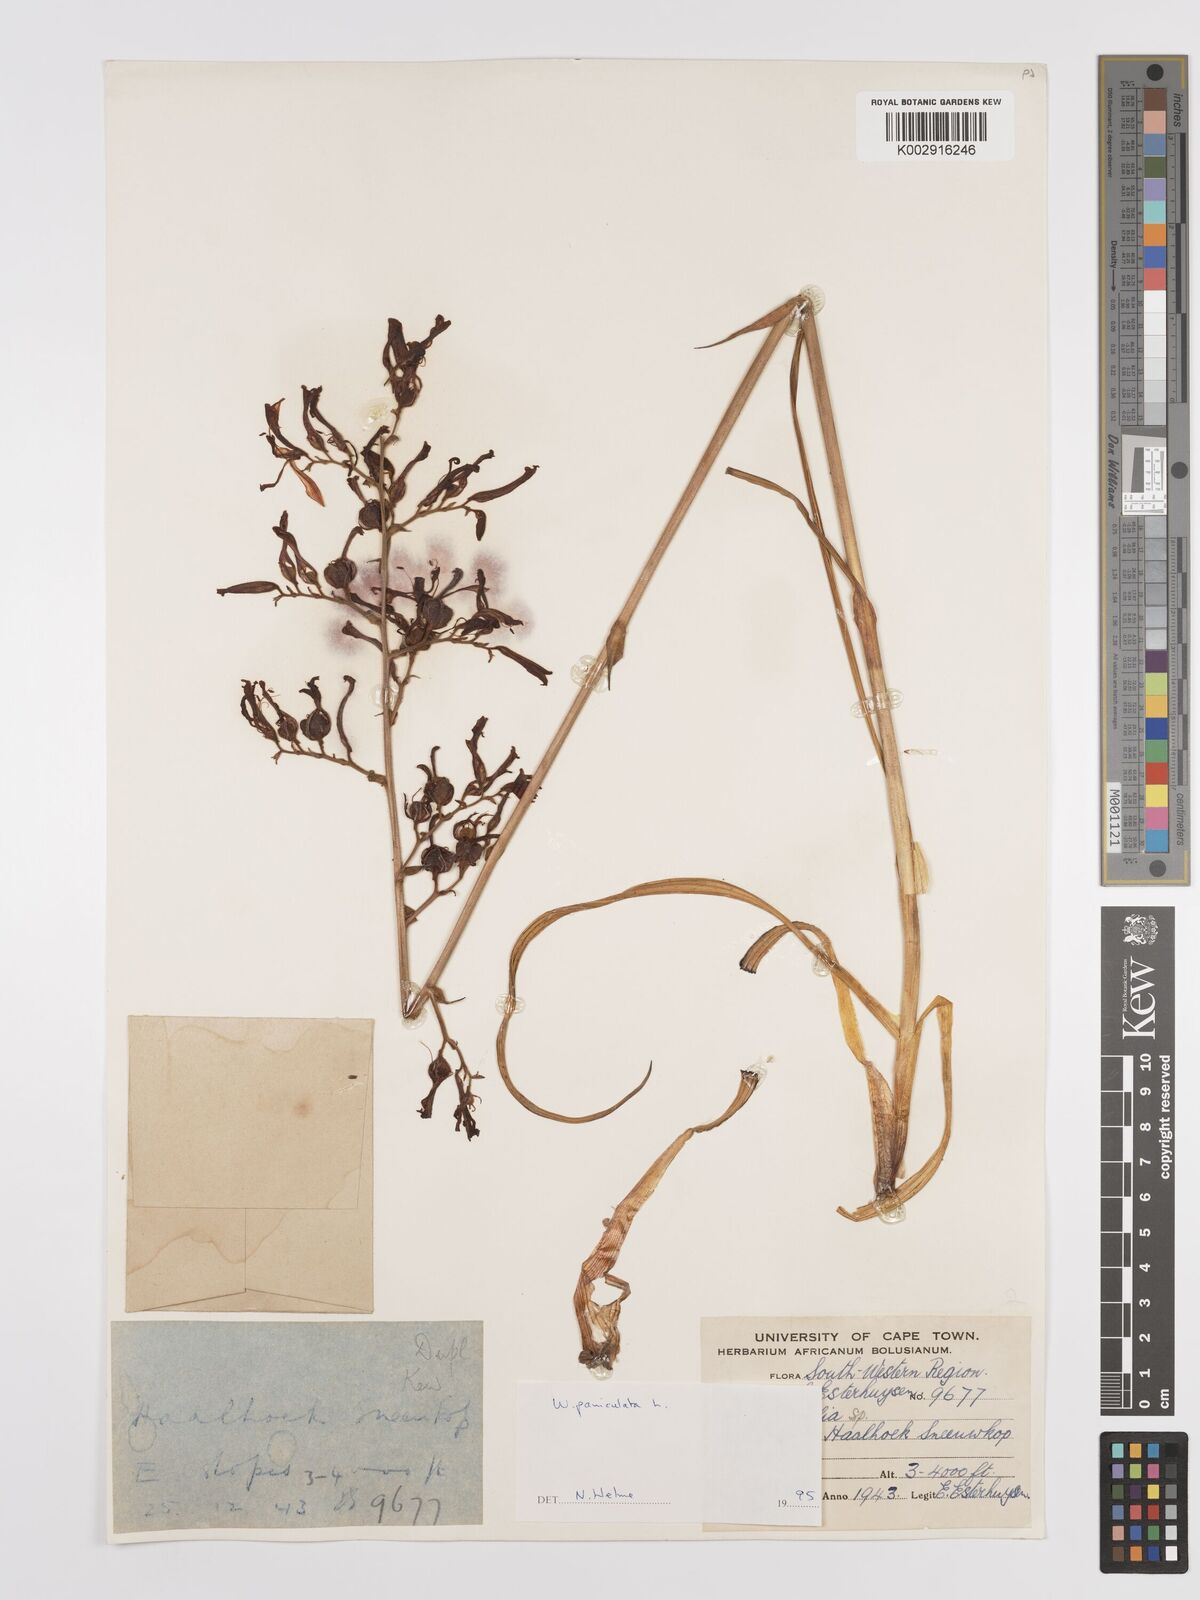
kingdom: Plantae
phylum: Tracheophyta
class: Liliopsida
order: Commelinales
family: Haemodoraceae
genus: Wachendorfia
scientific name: Wachendorfia paniculata
